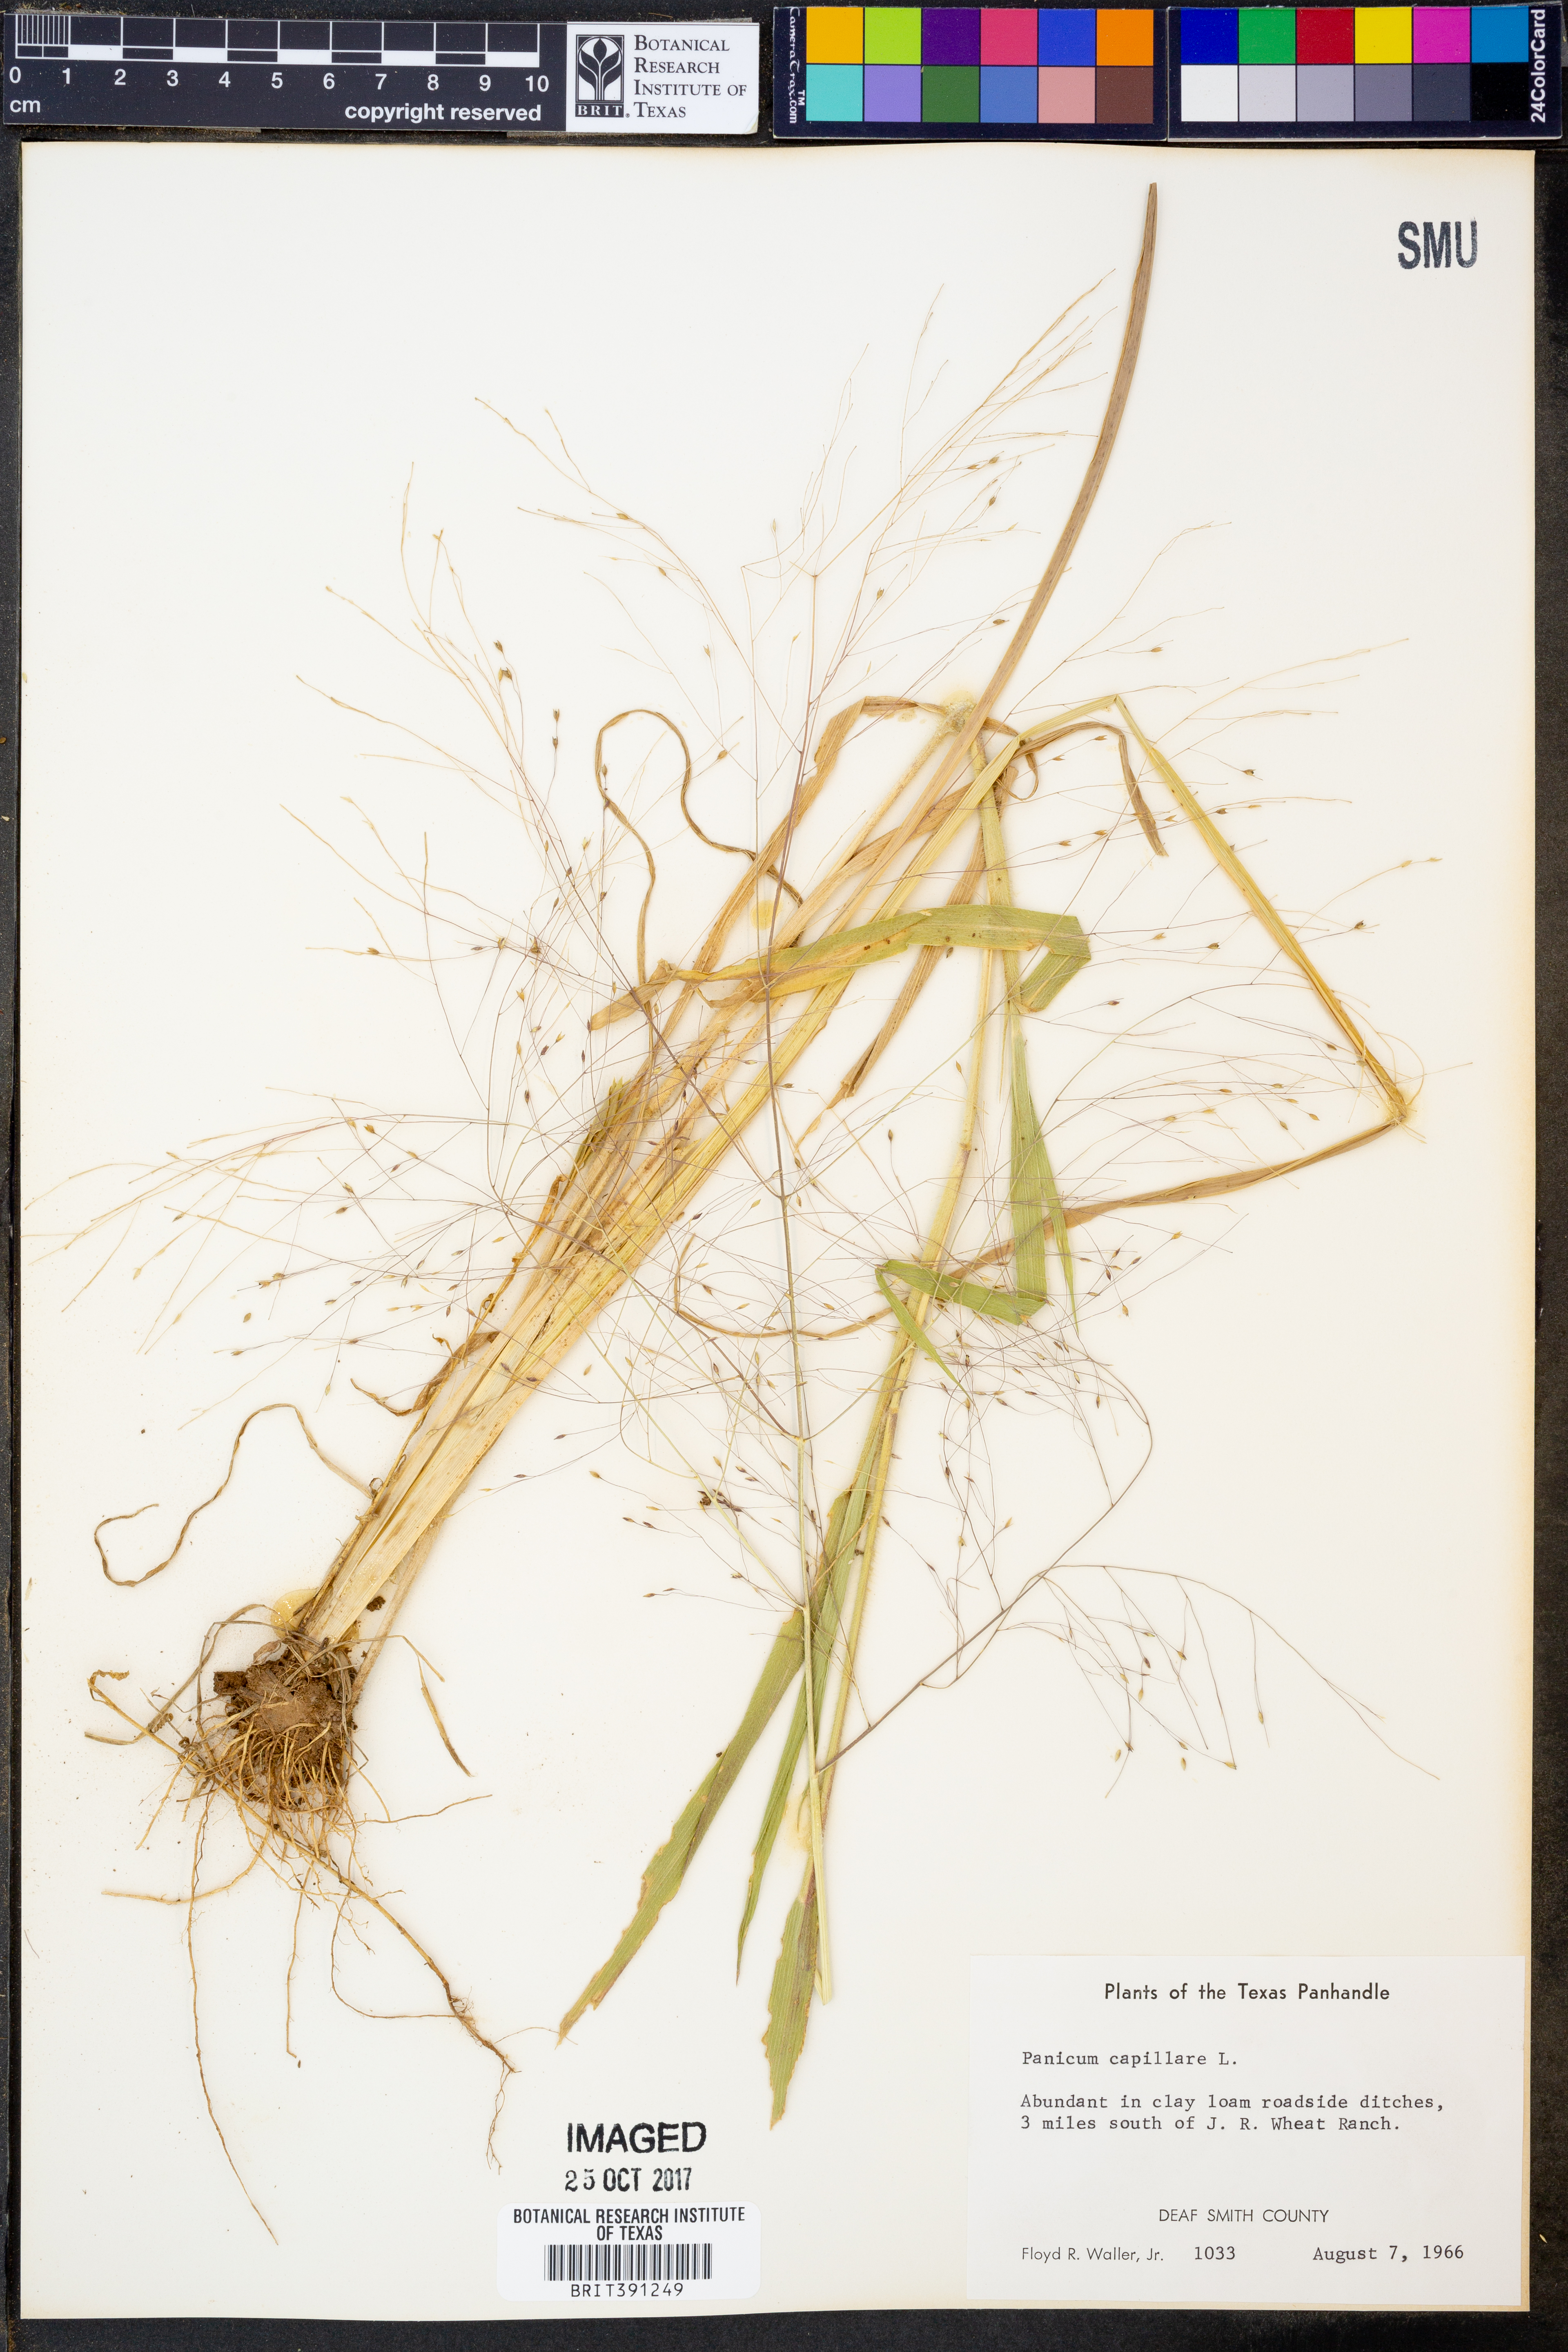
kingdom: Plantae
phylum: Tracheophyta
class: Liliopsida
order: Poales
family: Poaceae
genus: Panicum
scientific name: Panicum capillare
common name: Witch-grass
